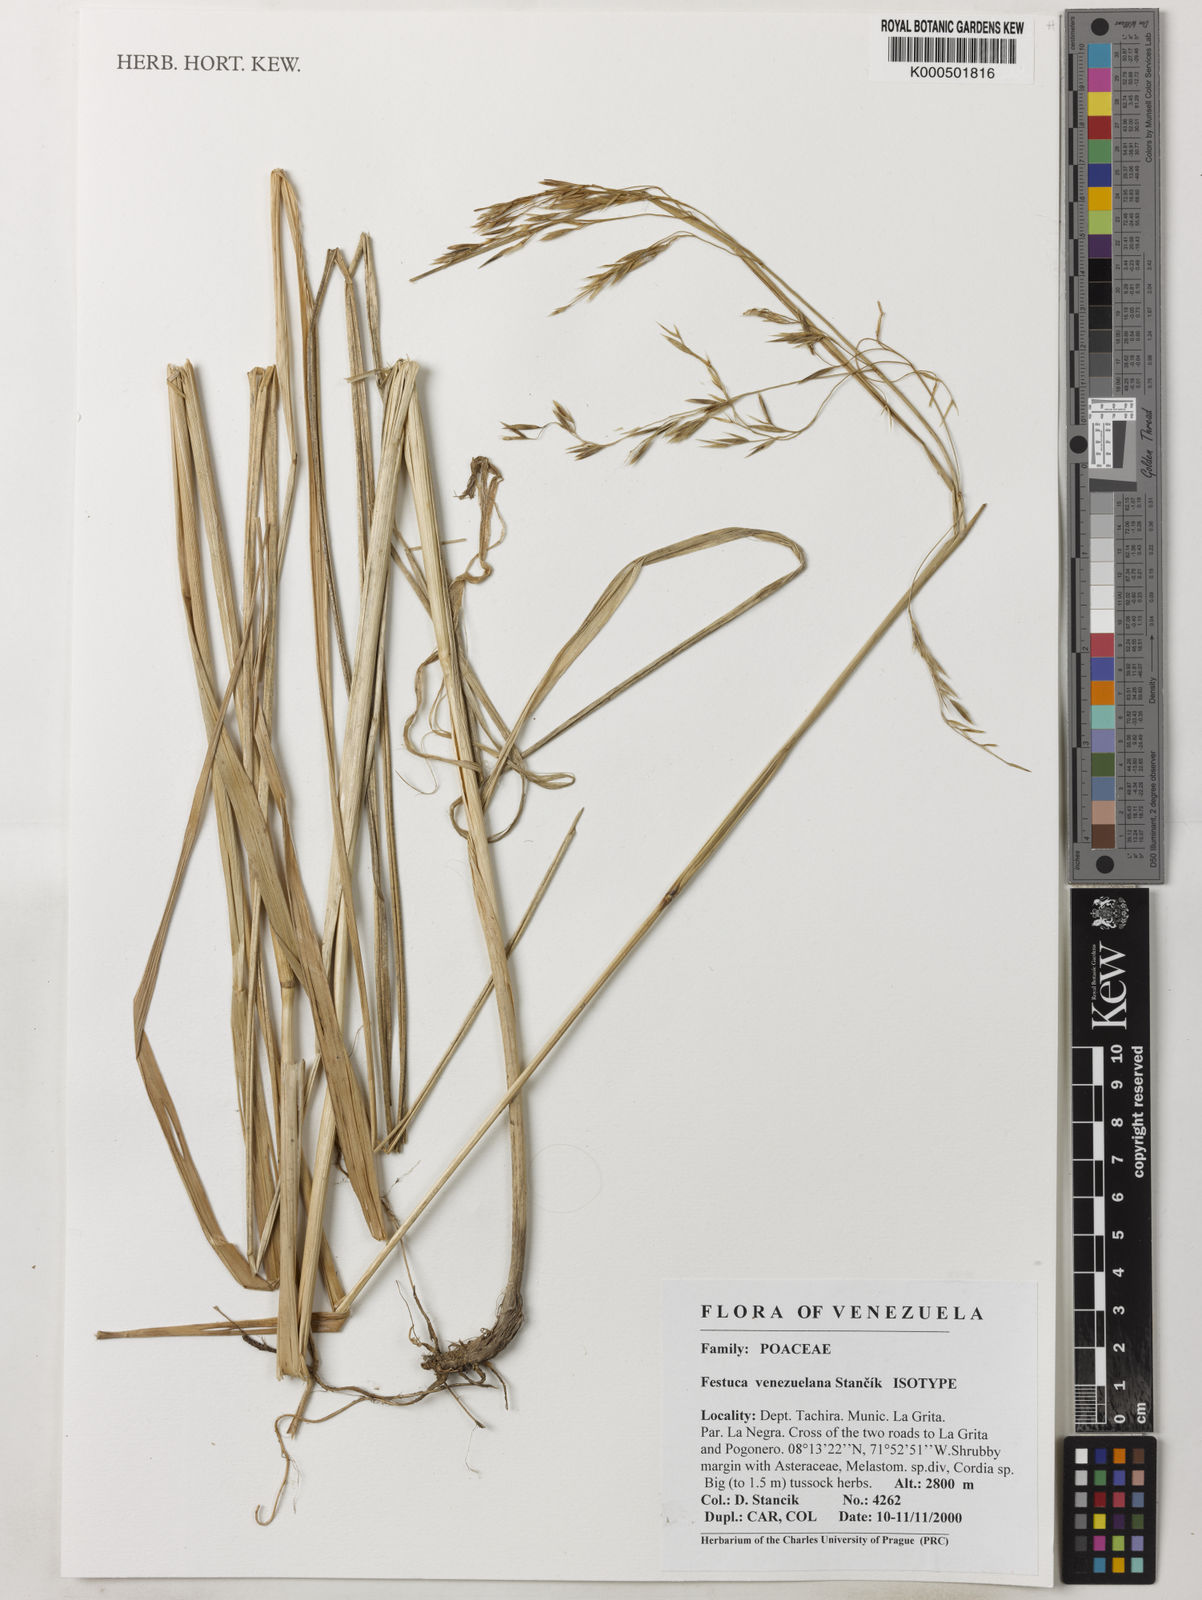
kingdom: Plantae
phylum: Tracheophyta
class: Liliopsida
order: Poales
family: Poaceae
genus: Festuca
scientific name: Festuca
